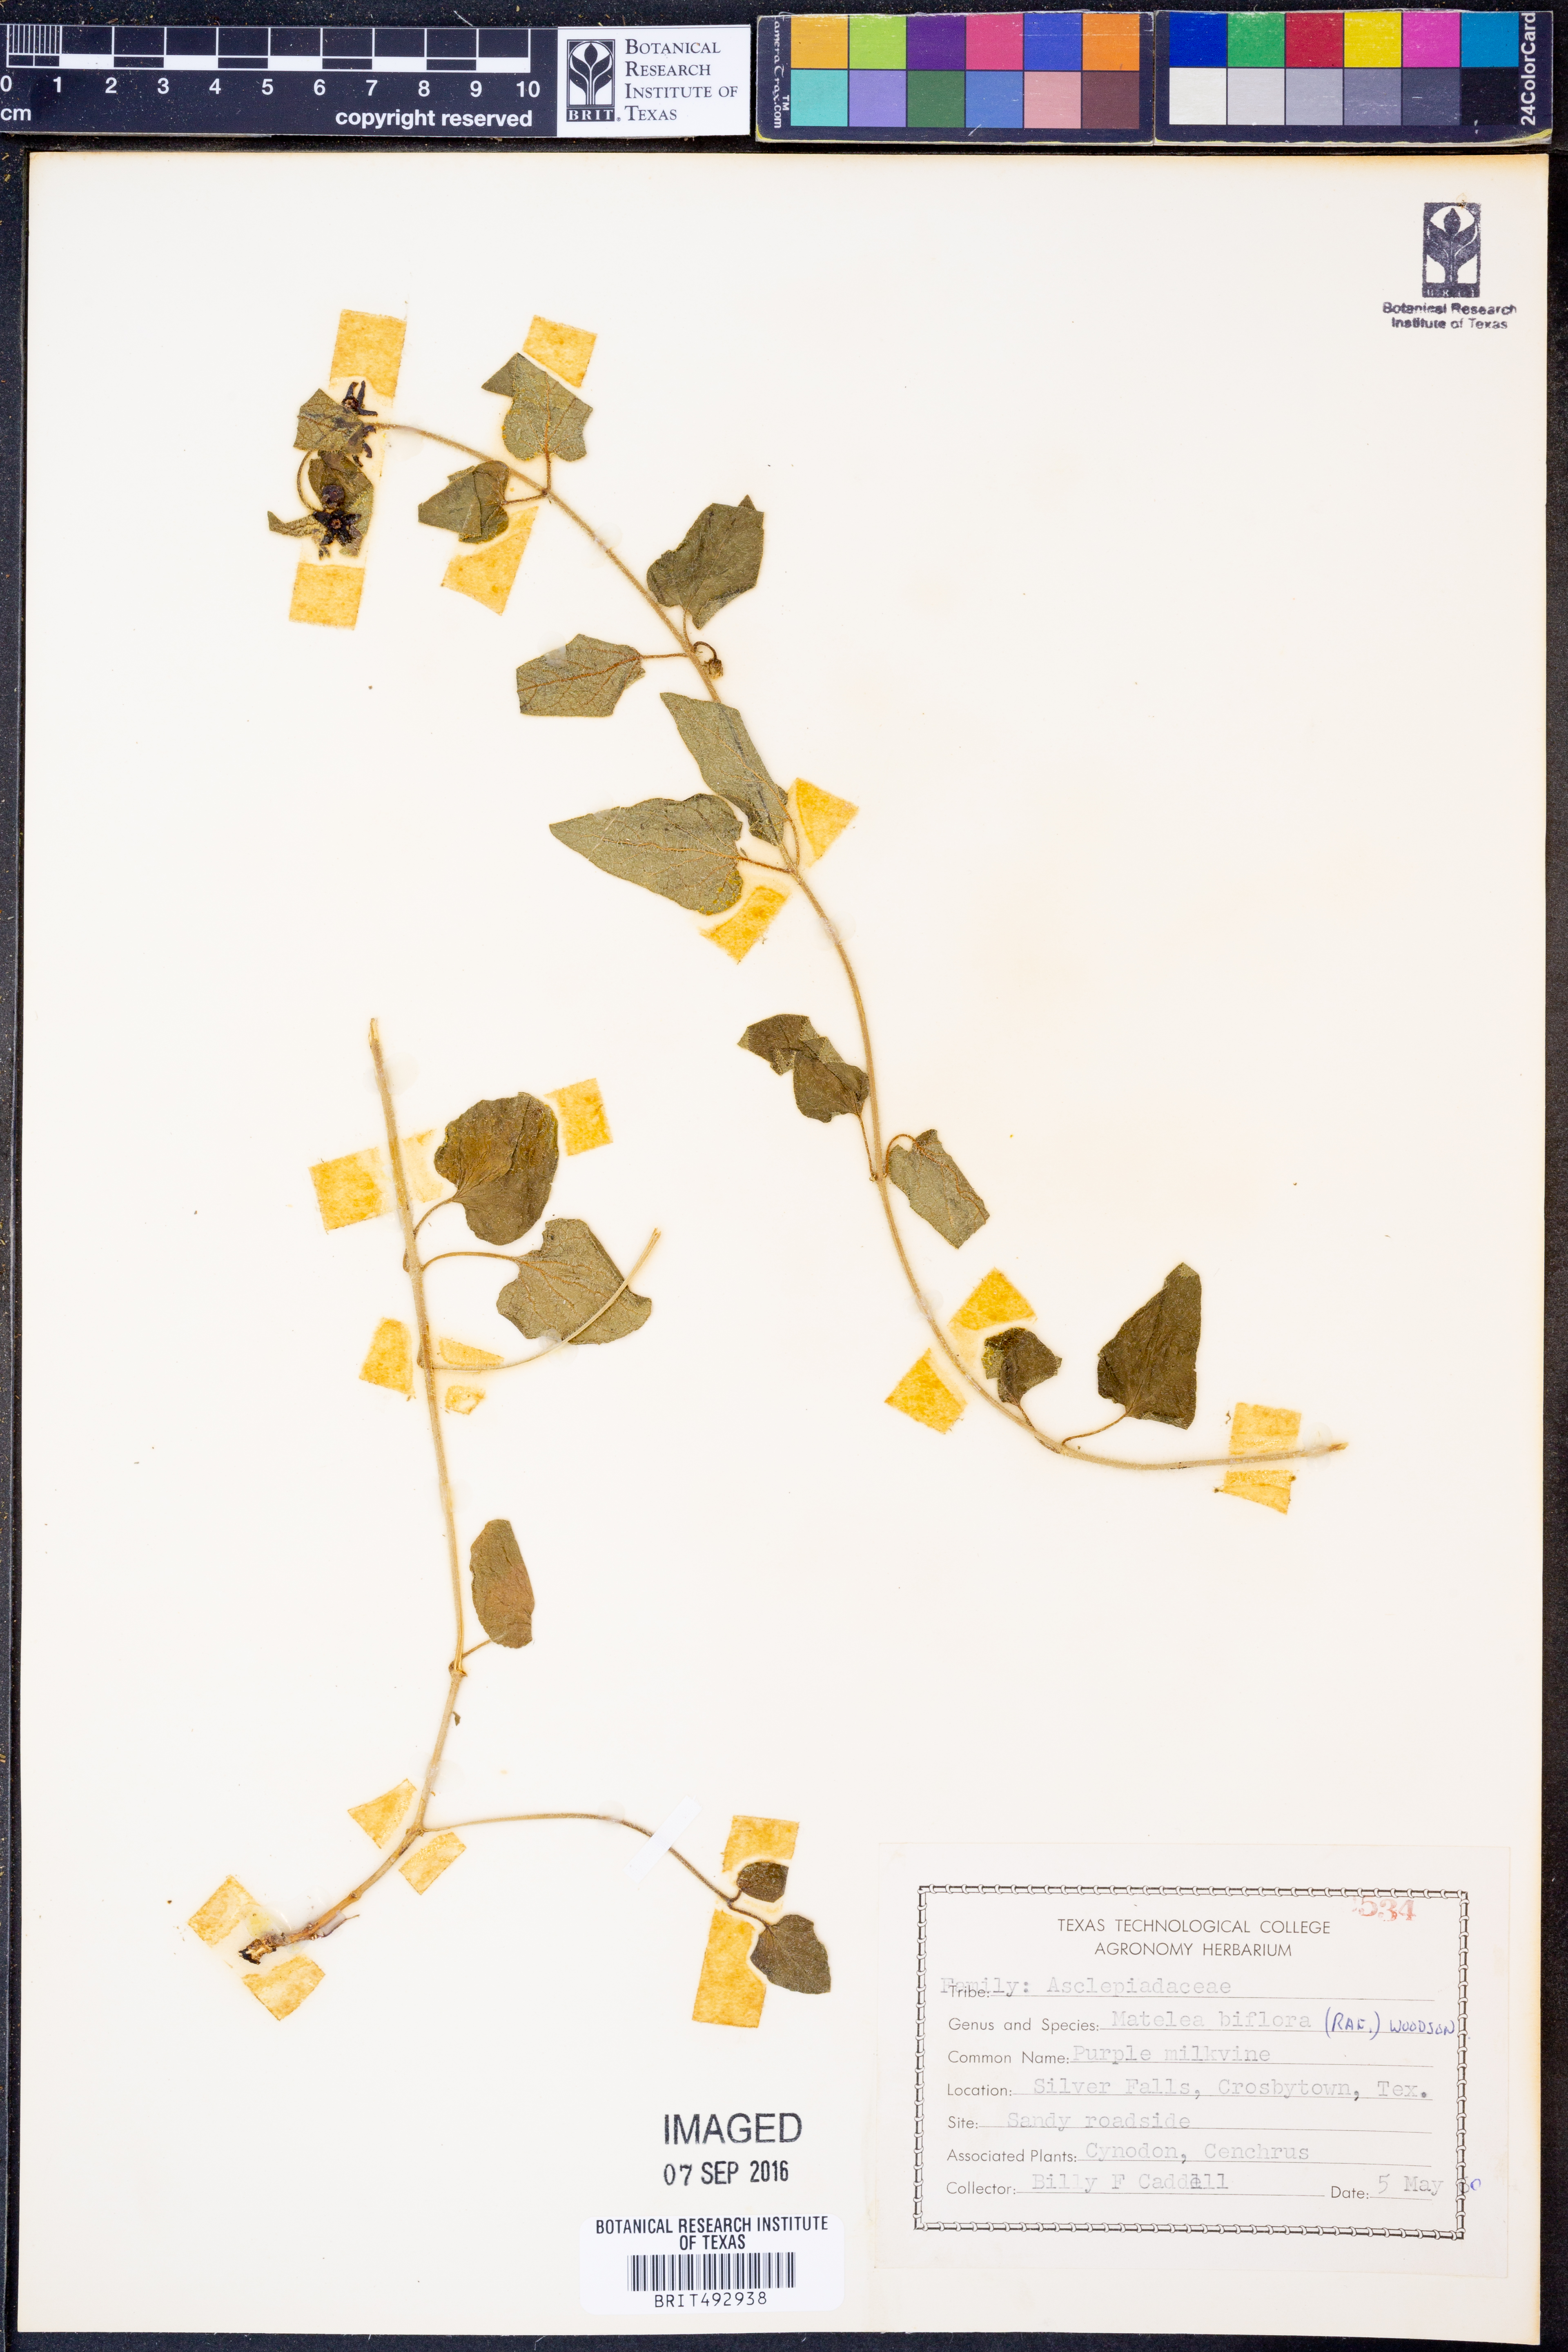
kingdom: Plantae
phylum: Tracheophyta
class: Magnoliopsida
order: Gentianales
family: Apocynaceae
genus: Chthamalia
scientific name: Chthamalia biflora
